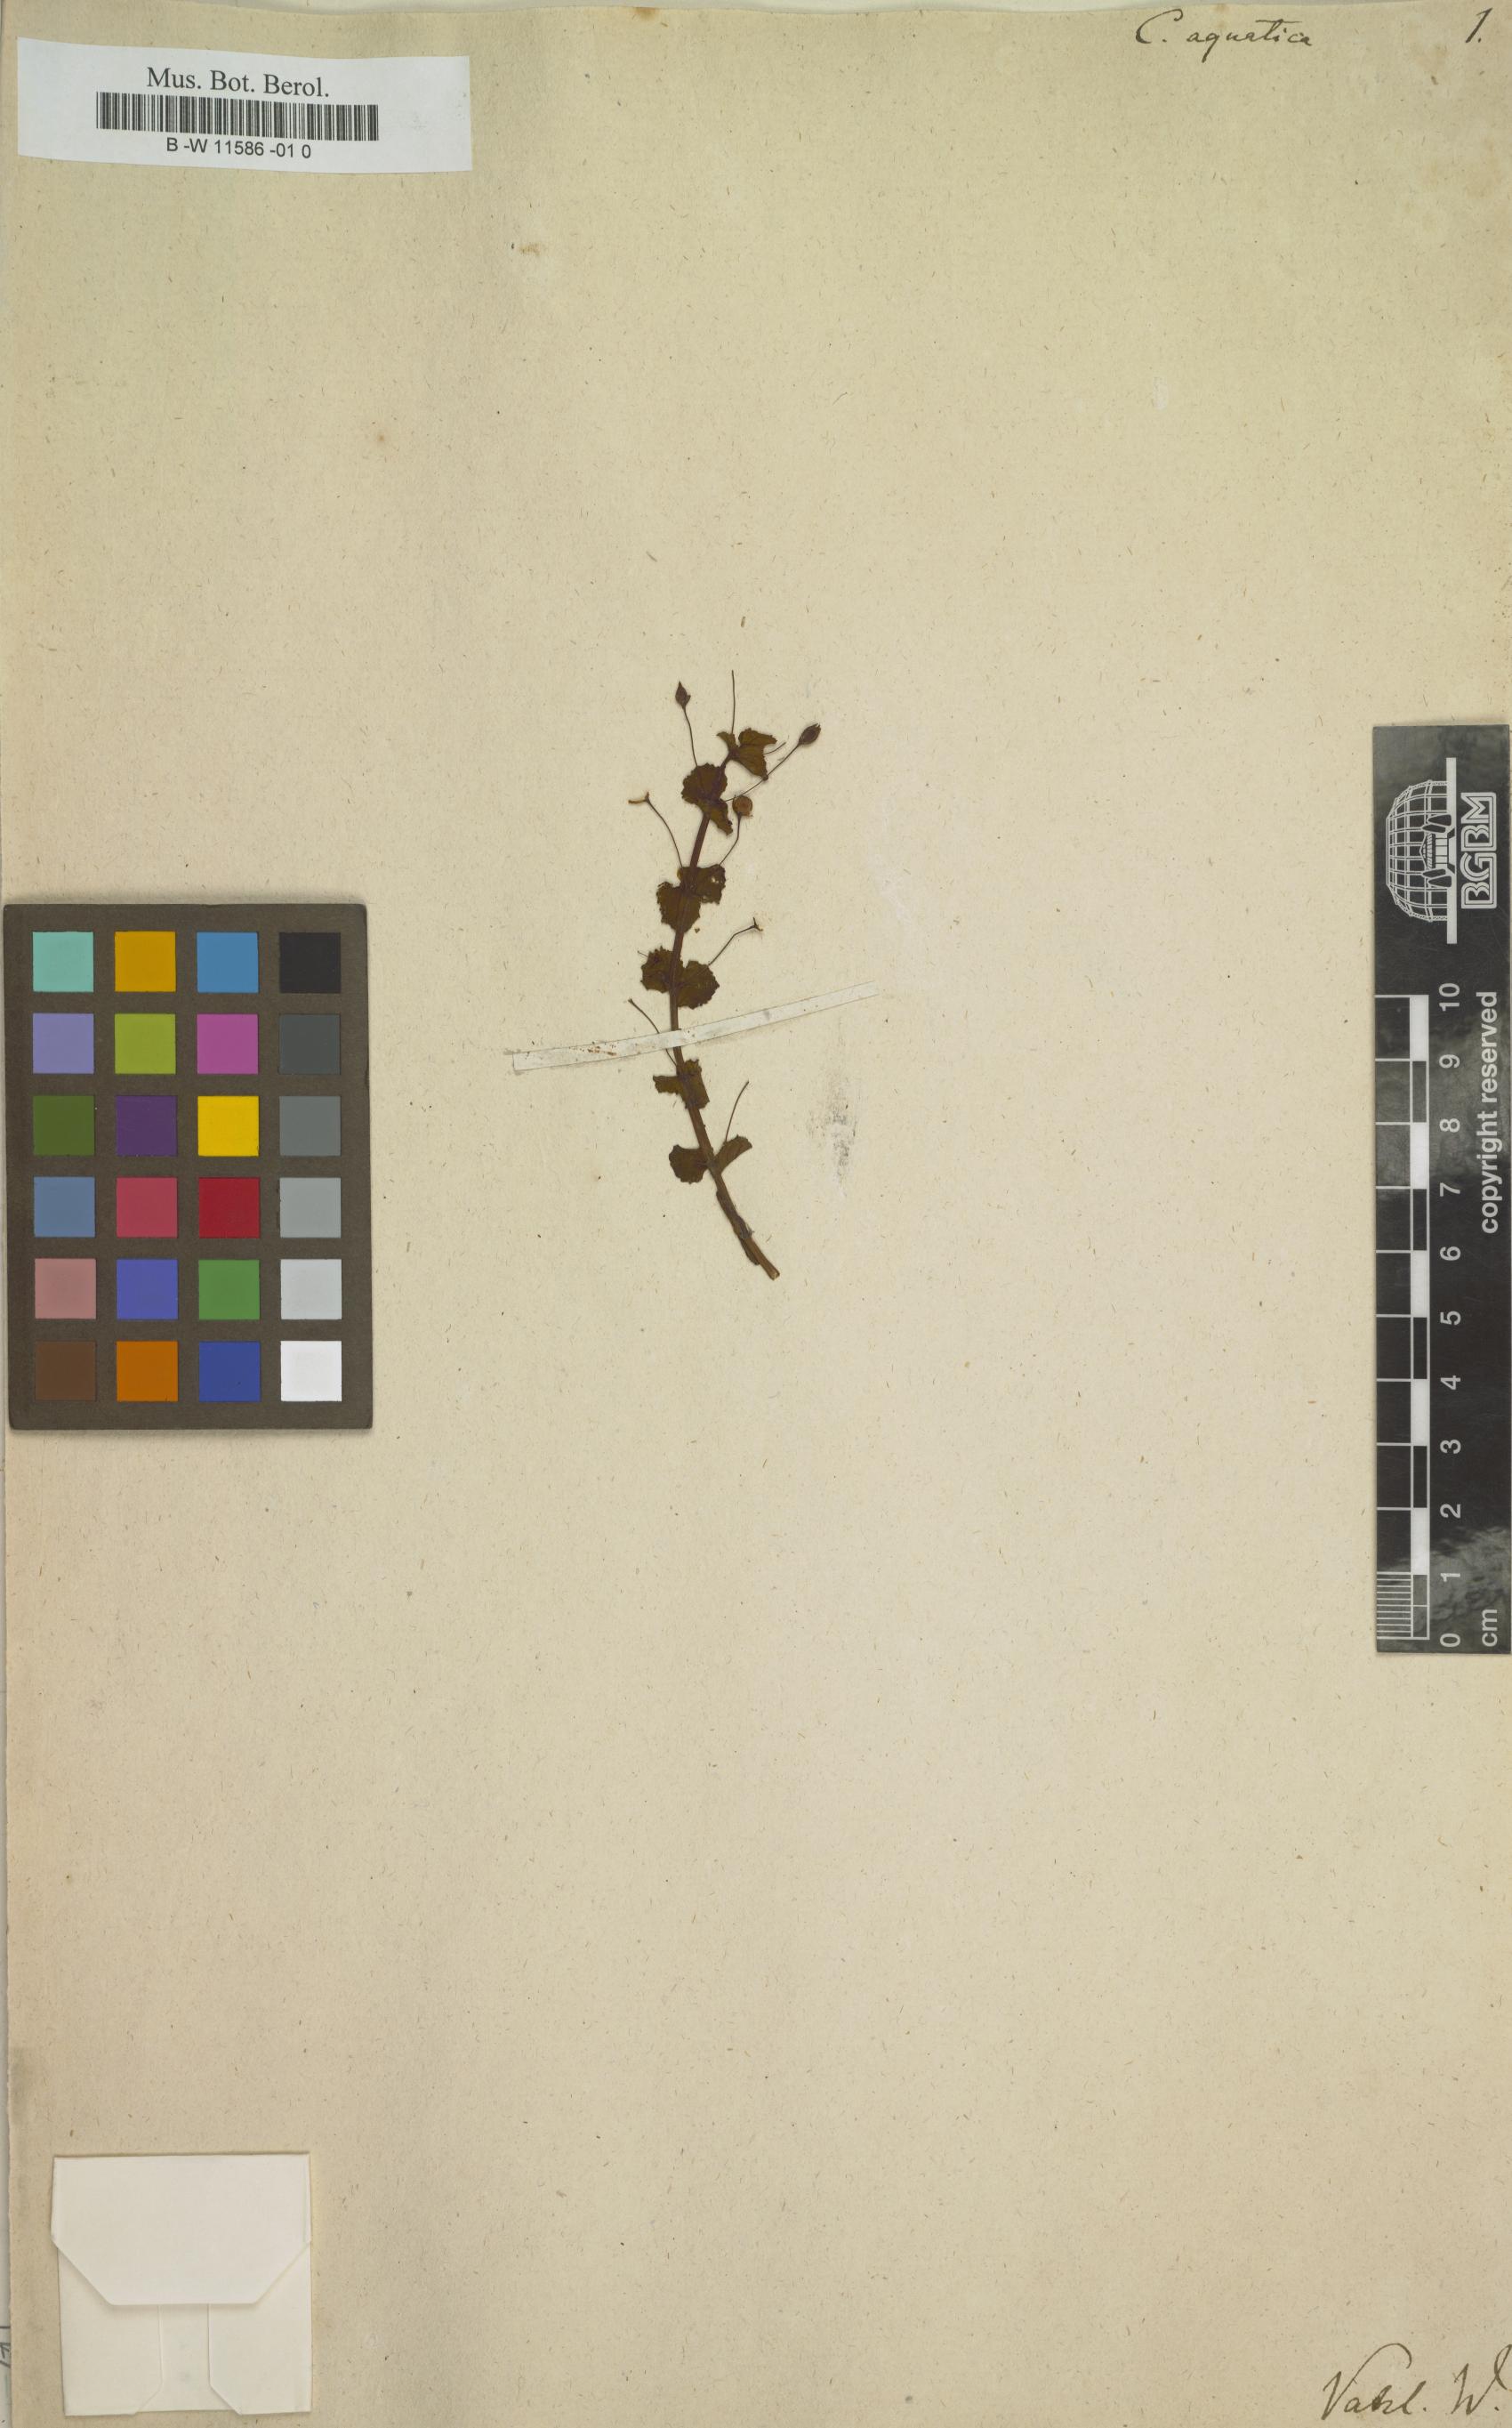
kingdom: Plantae
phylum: Tracheophyta
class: Magnoliopsida
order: Lamiales
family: Plantaginaceae
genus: Conobea
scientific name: Conobea aquatica
